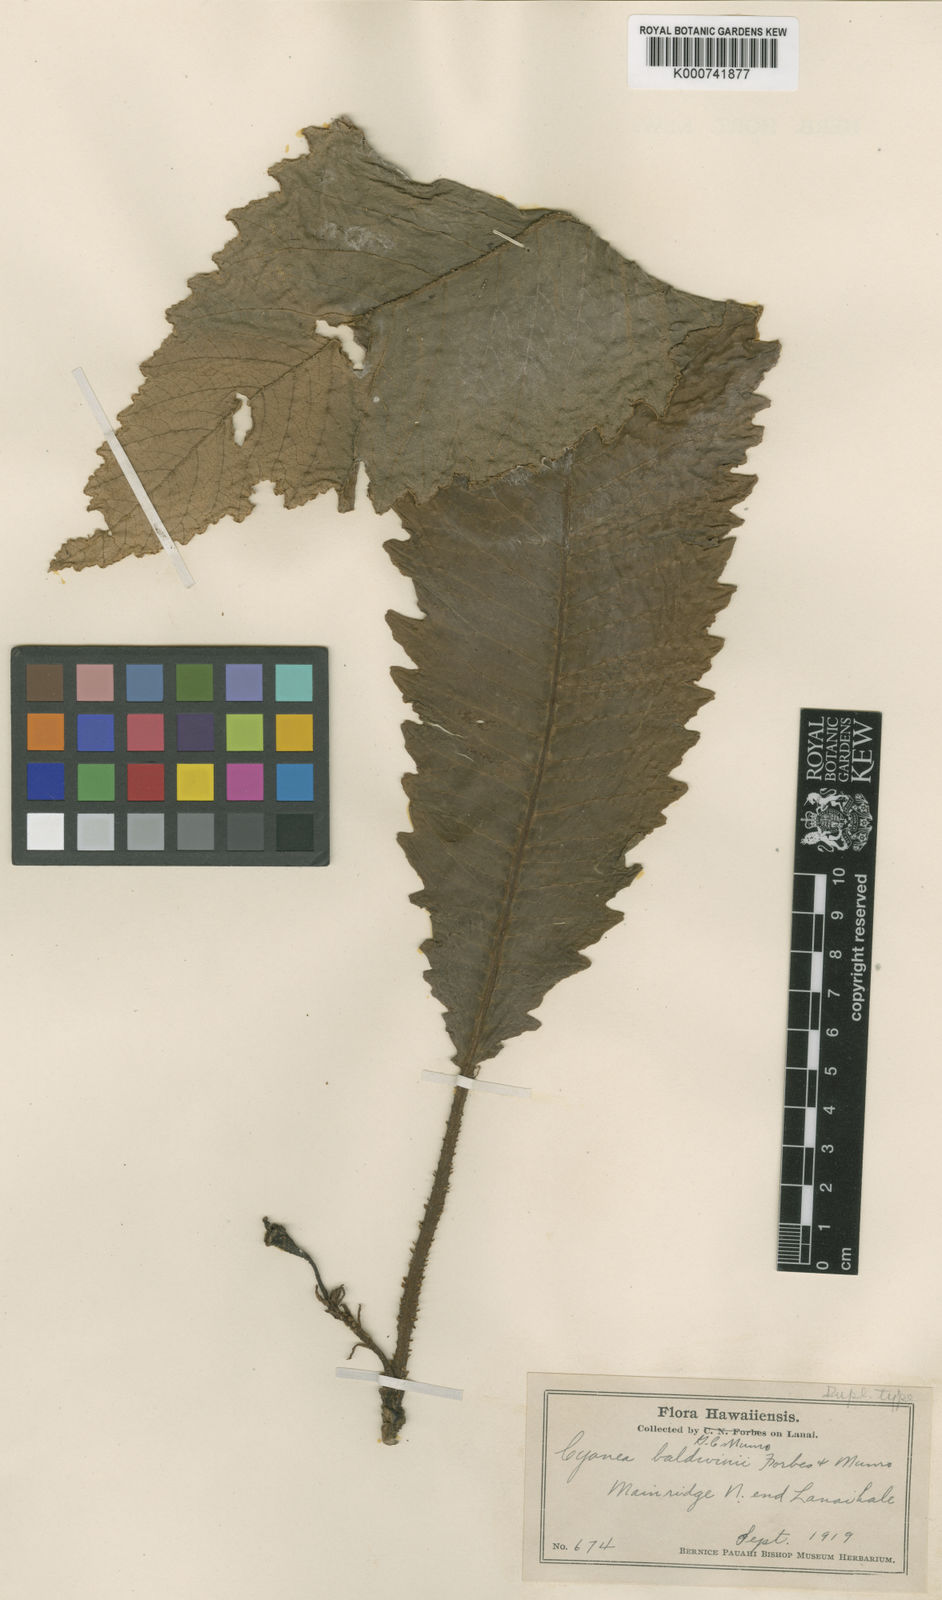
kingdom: Plantae
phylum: Tracheophyta
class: Magnoliopsida
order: Asterales
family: Campanulaceae
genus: Cyanea
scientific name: Cyanea lobata
